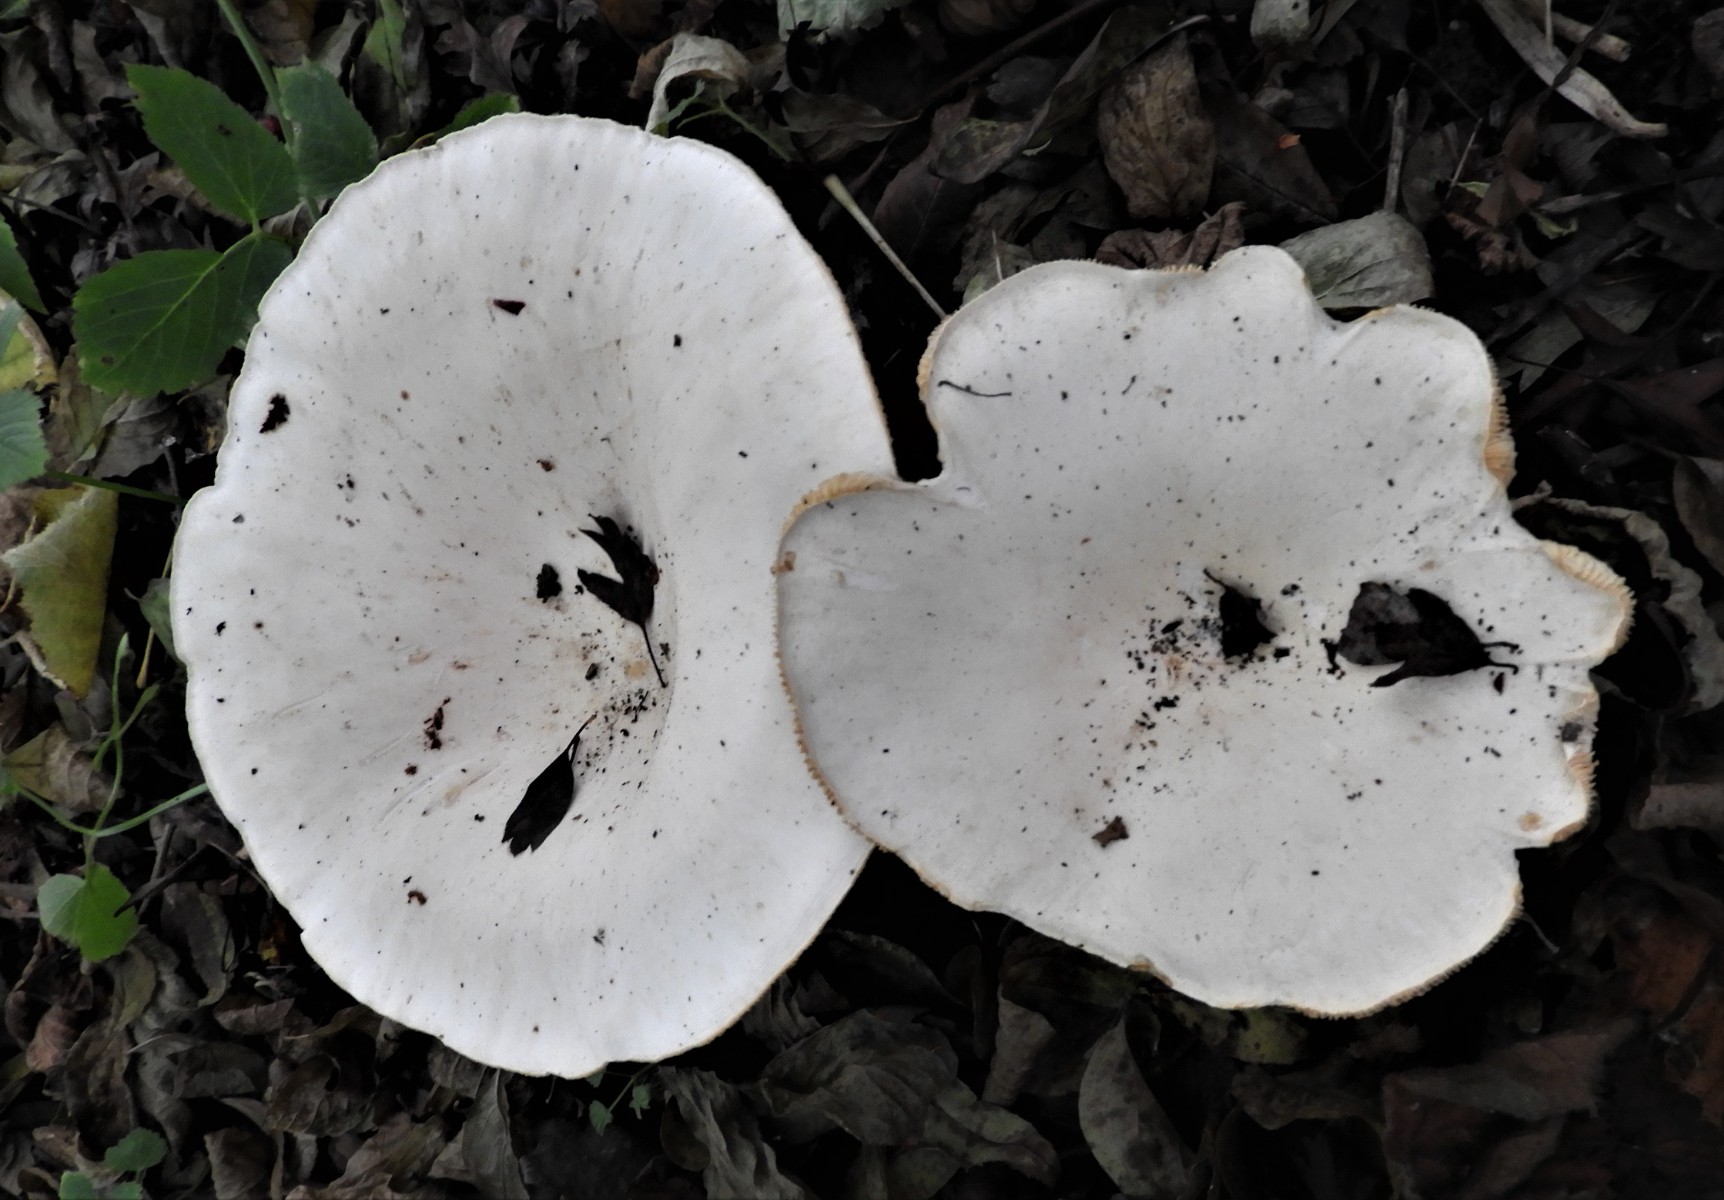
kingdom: Fungi
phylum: Basidiomycota
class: Agaricomycetes
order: Agaricales
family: Tricholomataceae
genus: Infundibulicybe
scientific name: Infundibulicybe geotropa
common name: stor tragthat
